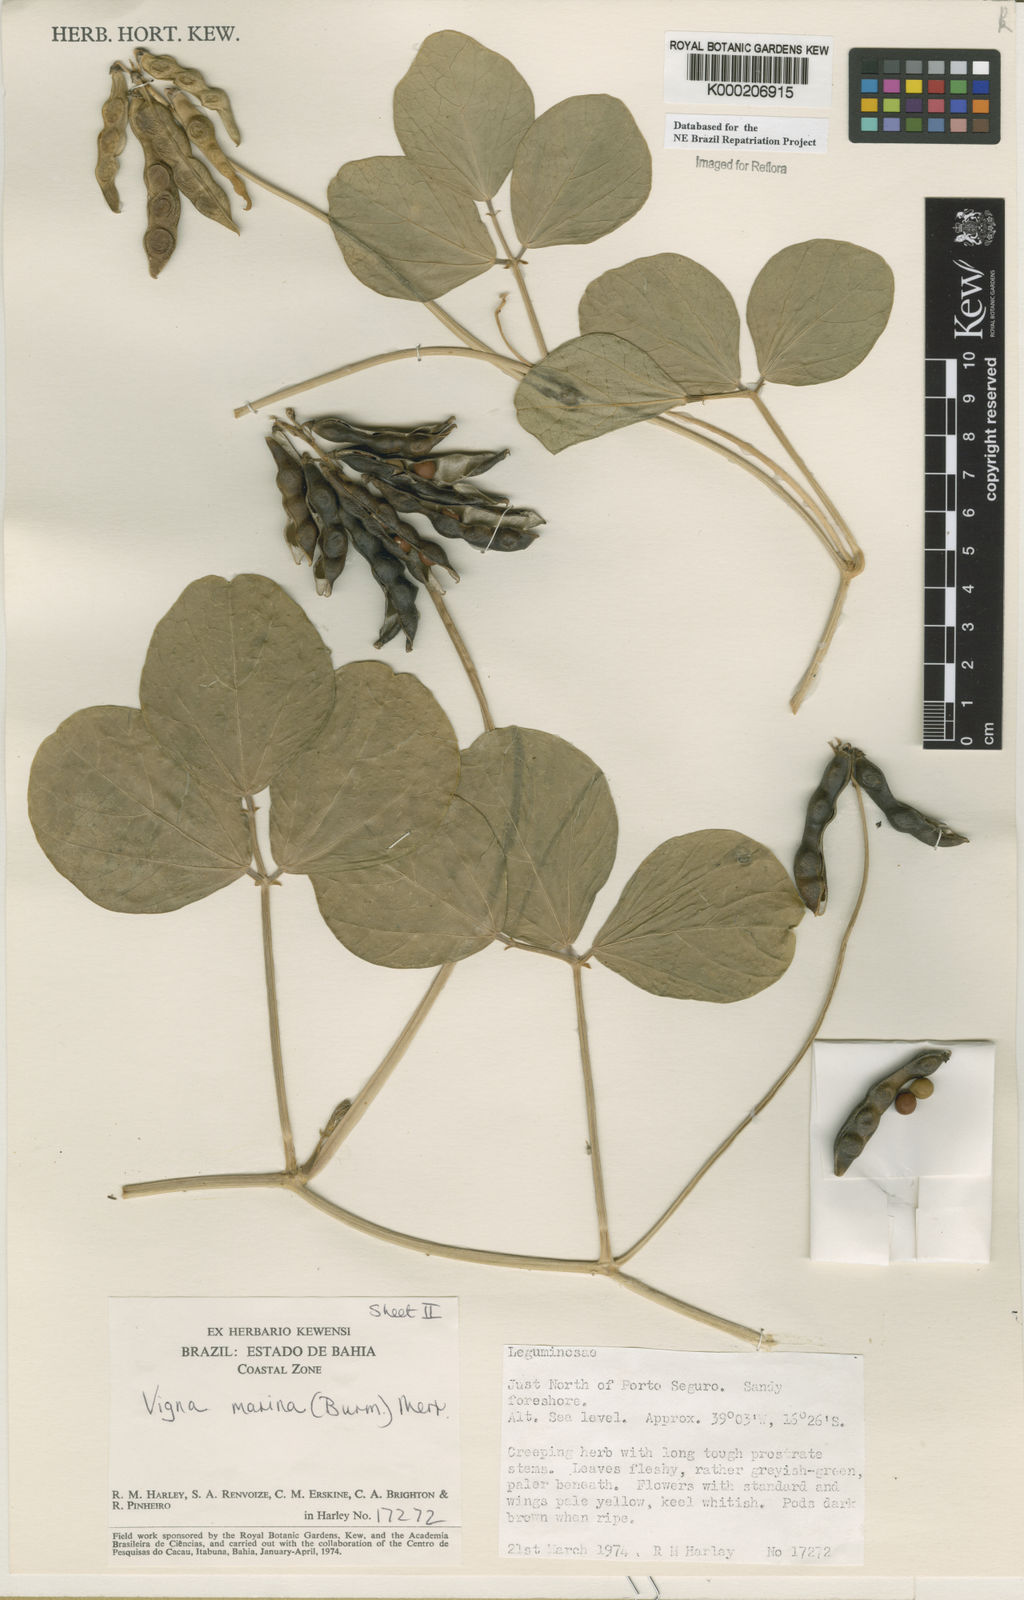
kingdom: Plantae
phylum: Tracheophyta
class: Magnoliopsida
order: Fabales
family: Fabaceae
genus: Vigna
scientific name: Vigna marina
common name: Dune-bean
